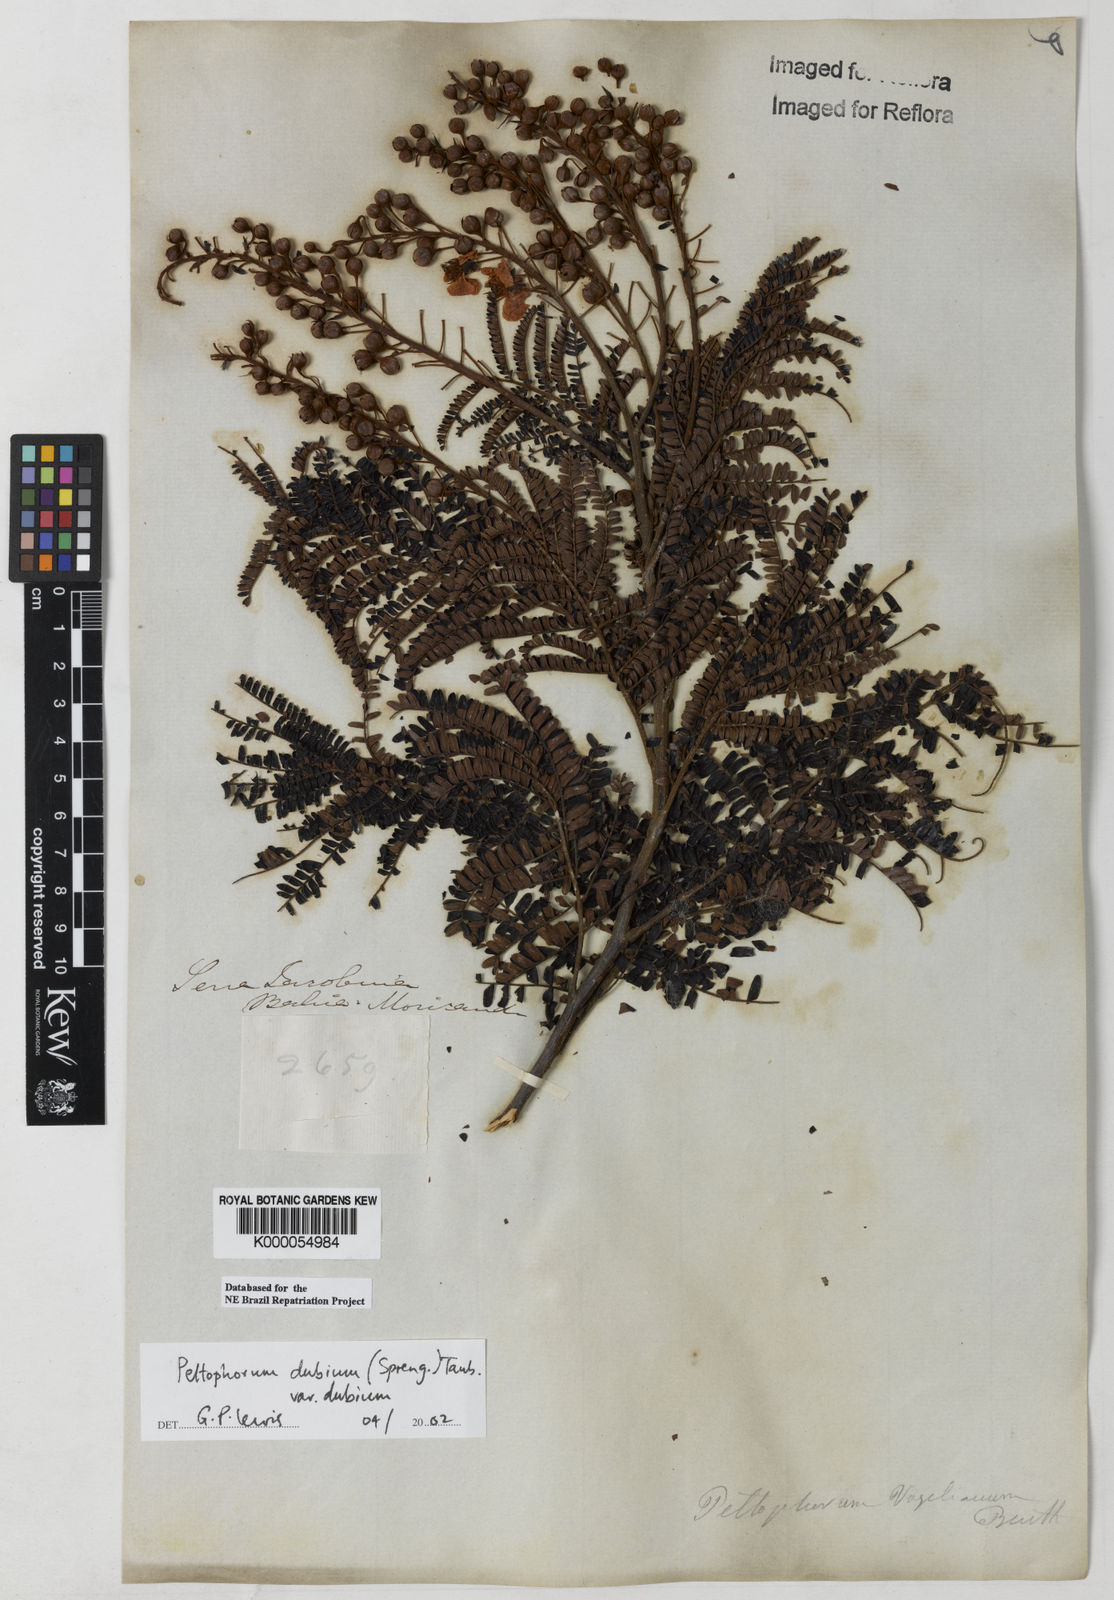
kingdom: Plantae
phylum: Tracheophyta
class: Magnoliopsida
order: Fabales
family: Fabaceae
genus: Peltophorum
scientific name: Peltophorum dubium
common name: Horsebush
